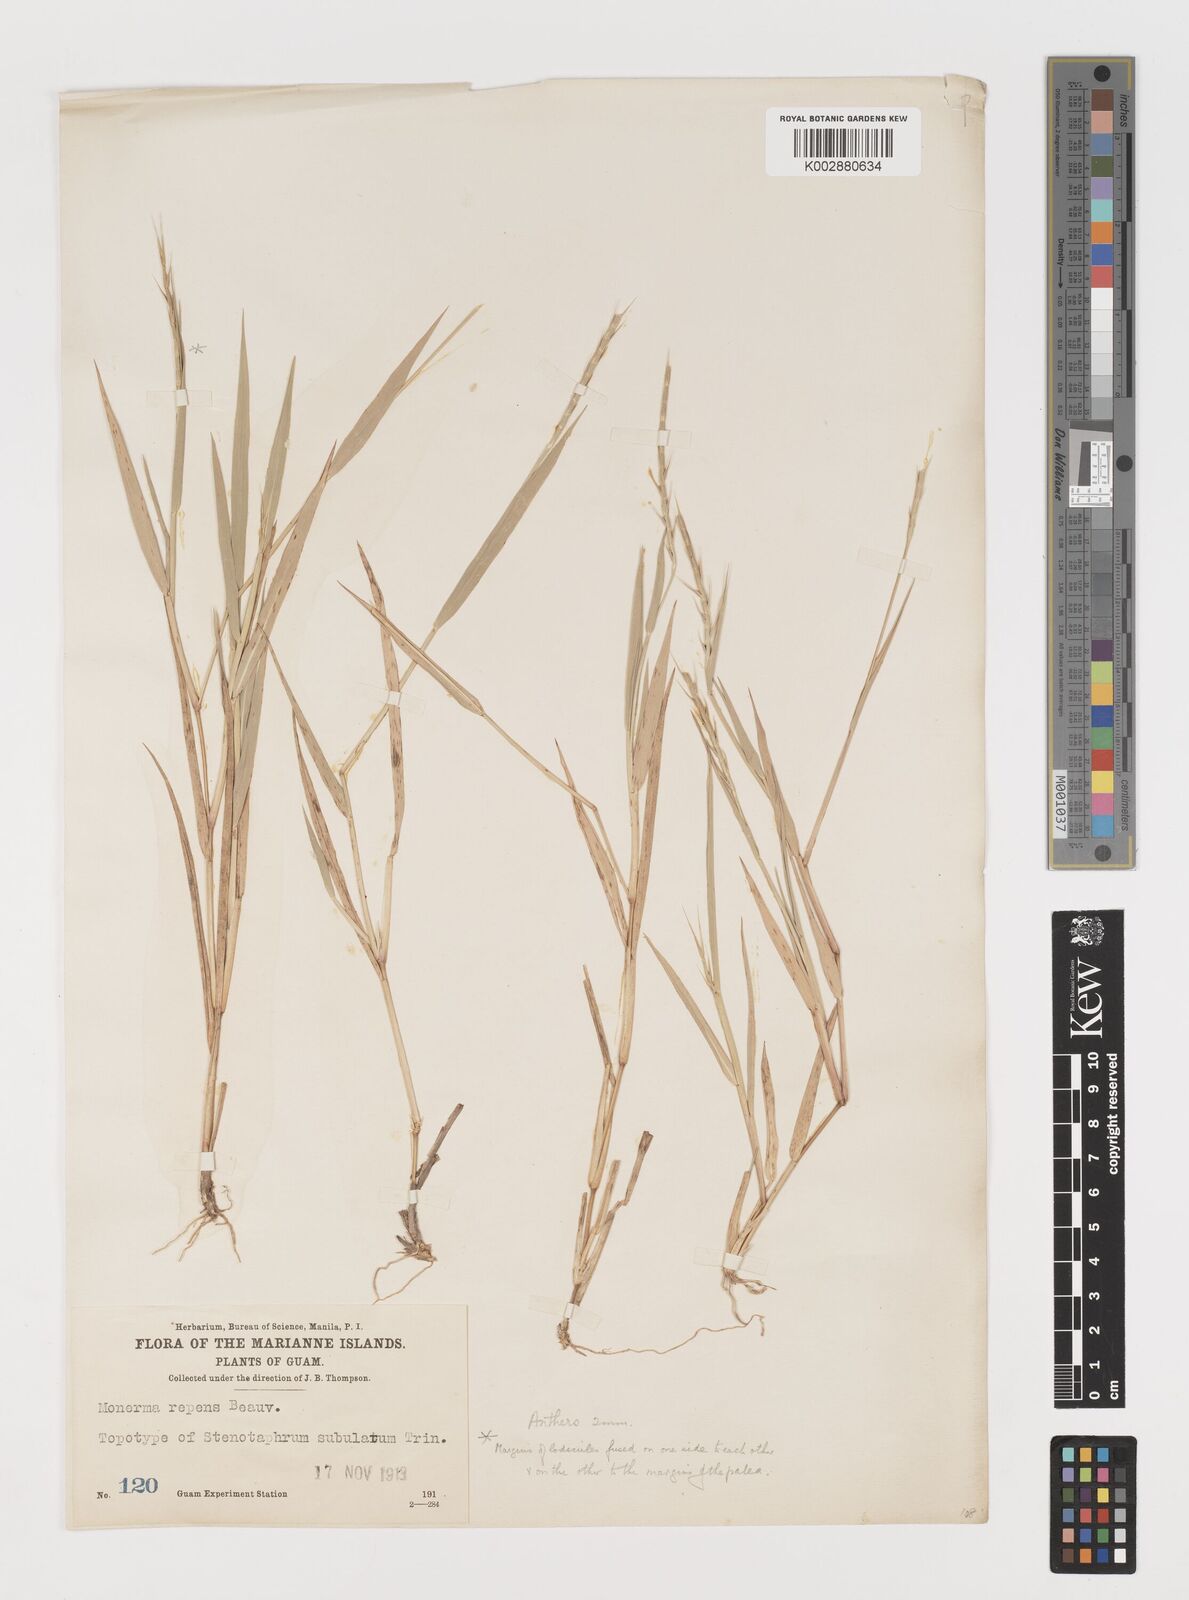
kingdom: Plantae
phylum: Tracheophyta
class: Liliopsida
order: Poales
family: Poaceae
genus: Lepturus
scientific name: Lepturus repens
